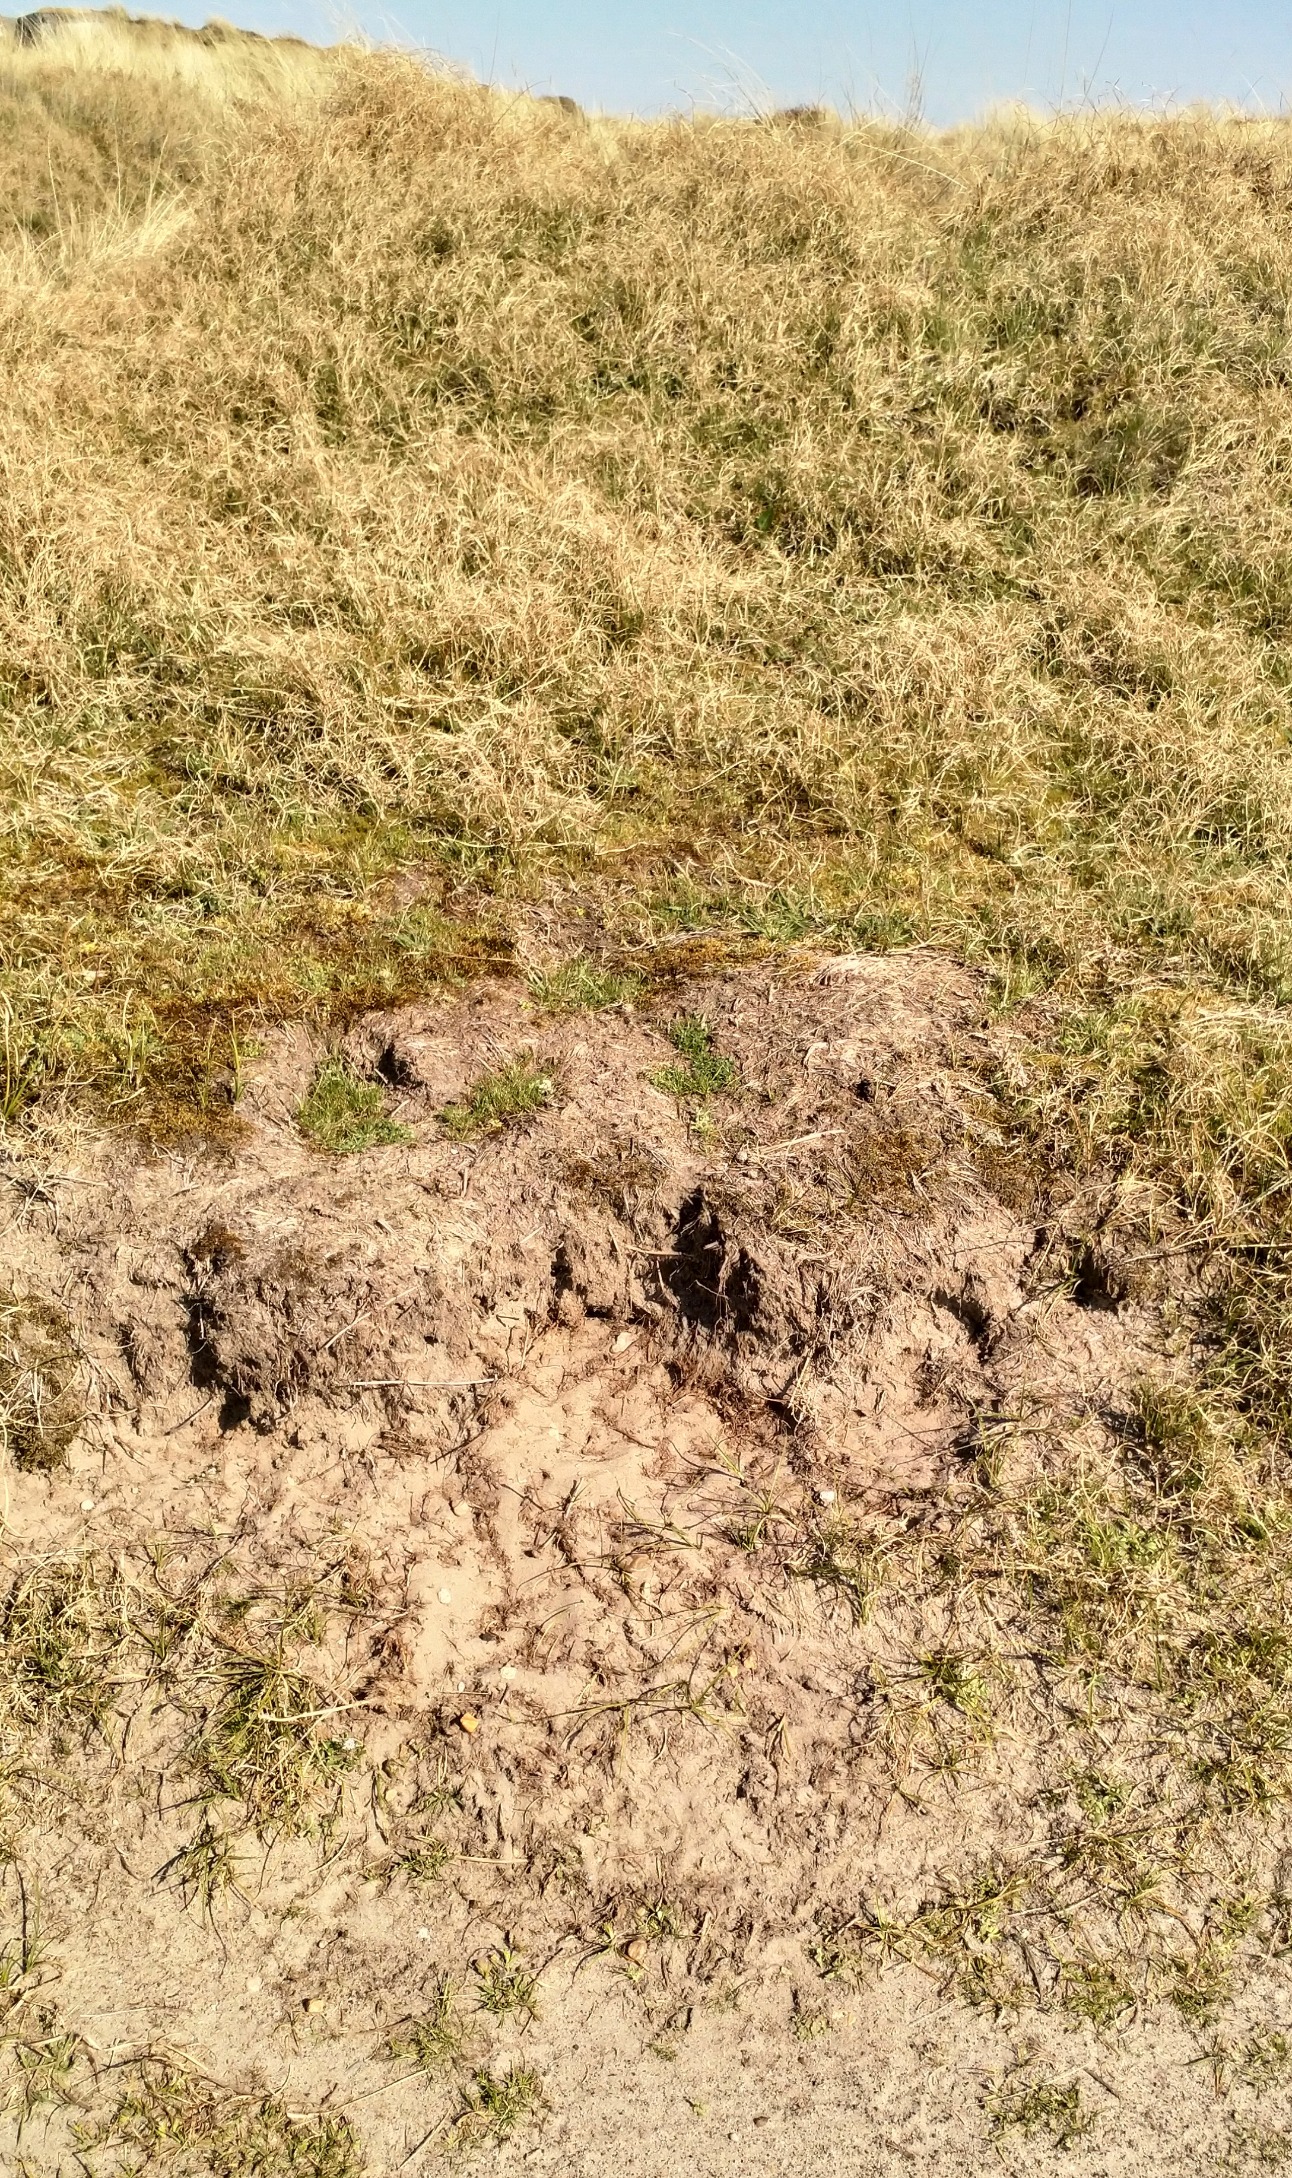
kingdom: Animalia
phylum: Chordata
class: Aves
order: Galliformes
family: Phasianidae
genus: Perdix
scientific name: Perdix perdix
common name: Agerhøne
